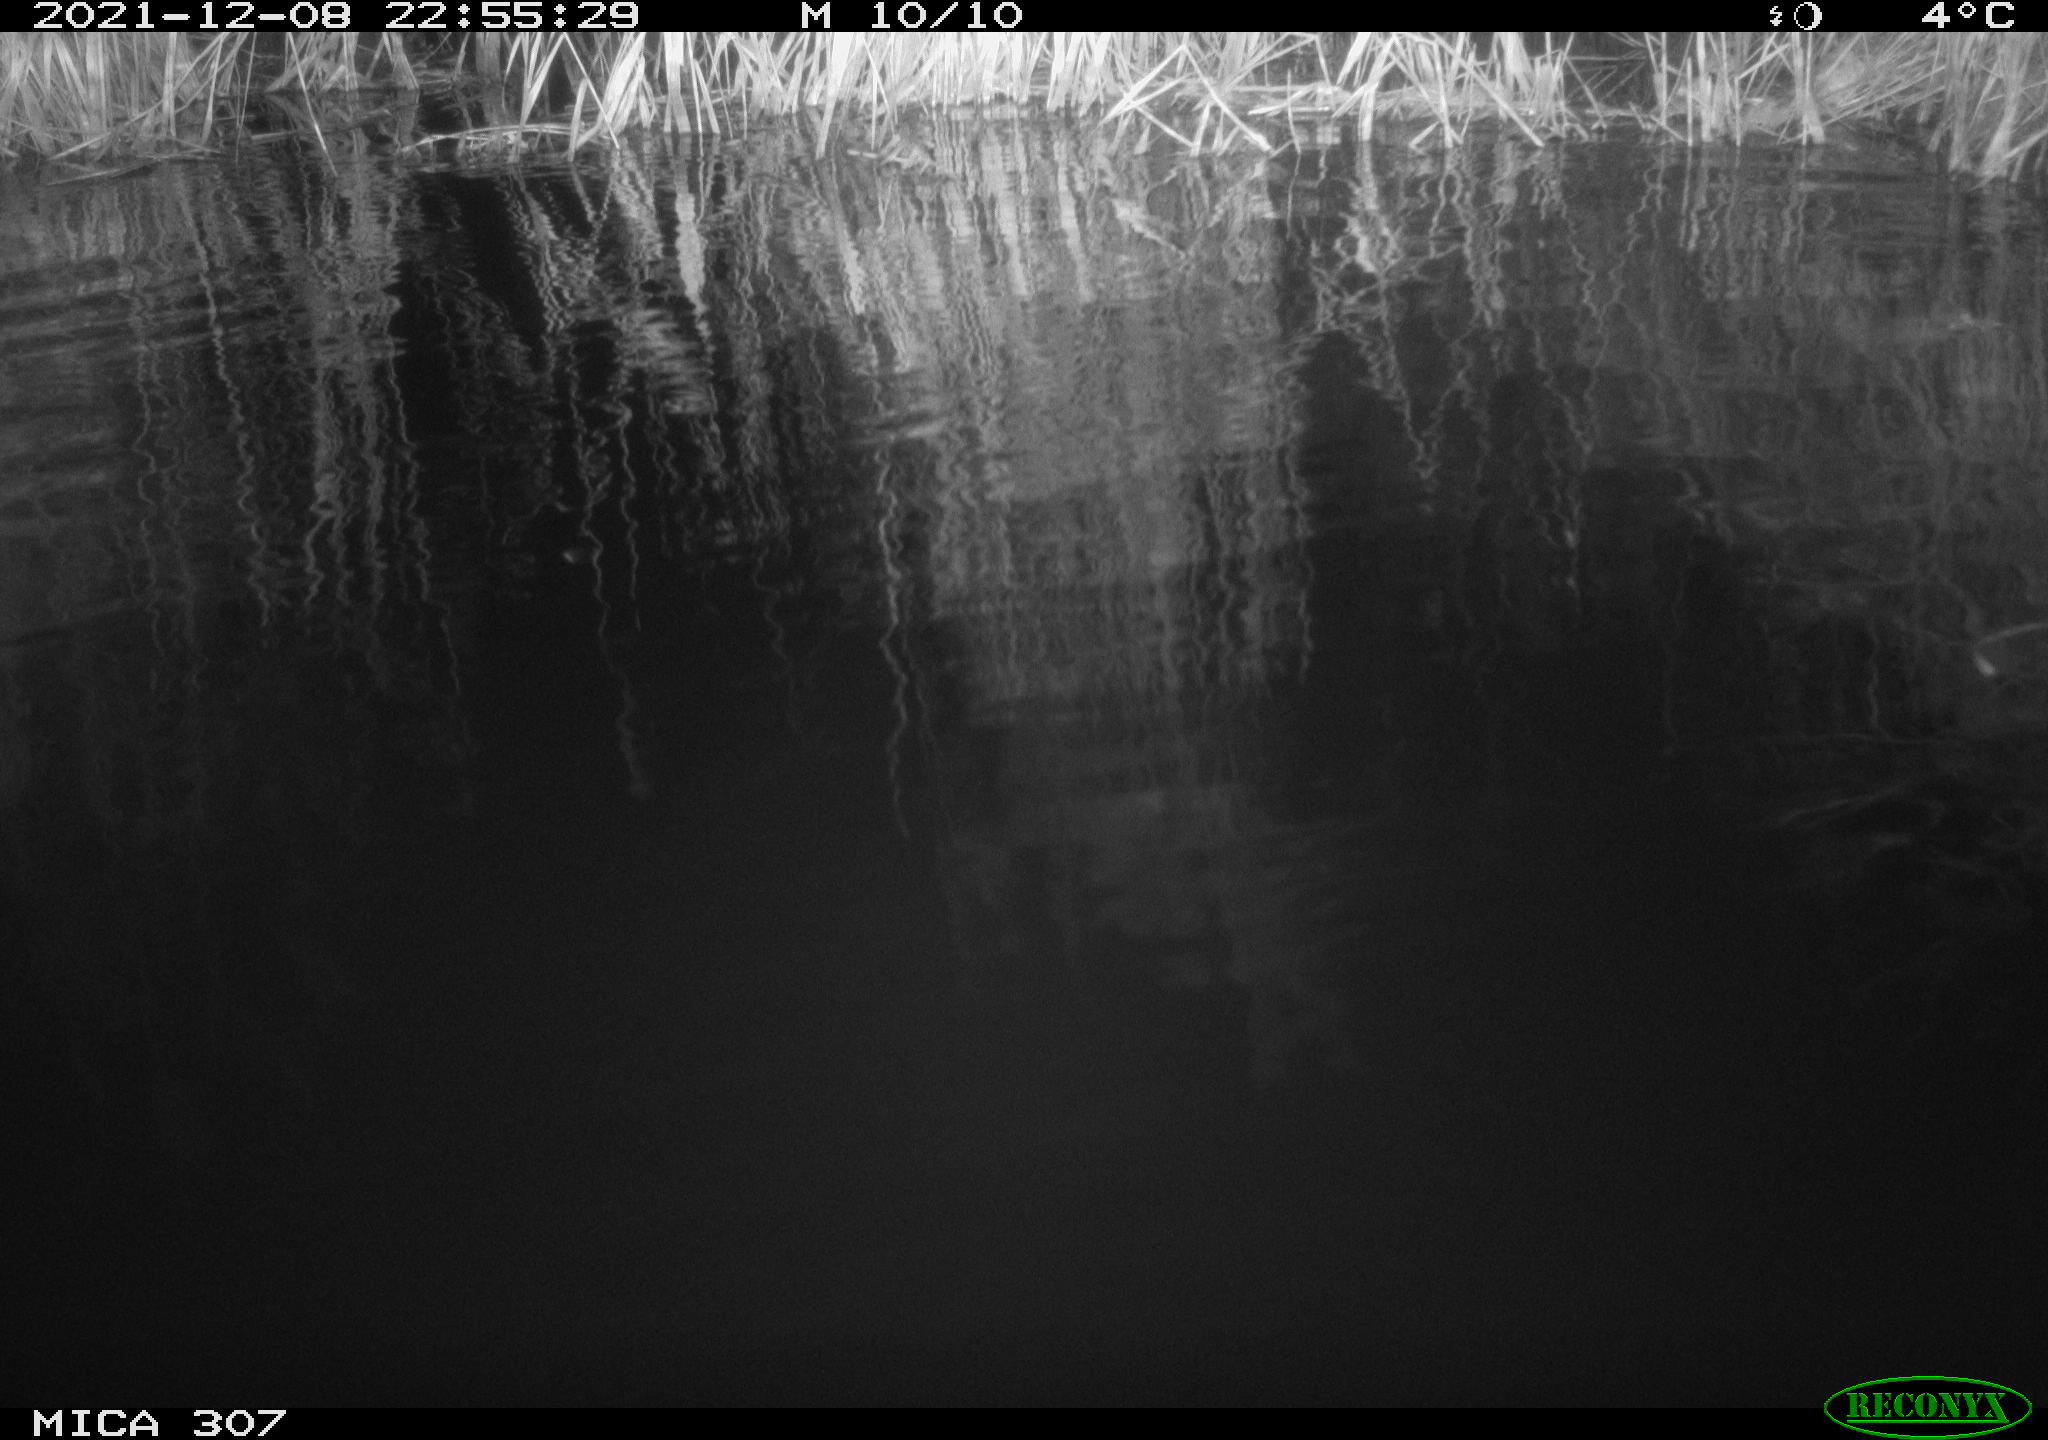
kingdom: Animalia
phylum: Chordata
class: Mammalia
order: Rodentia
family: Muridae
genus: Rattus
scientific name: Rattus norvegicus
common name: Brown rat
